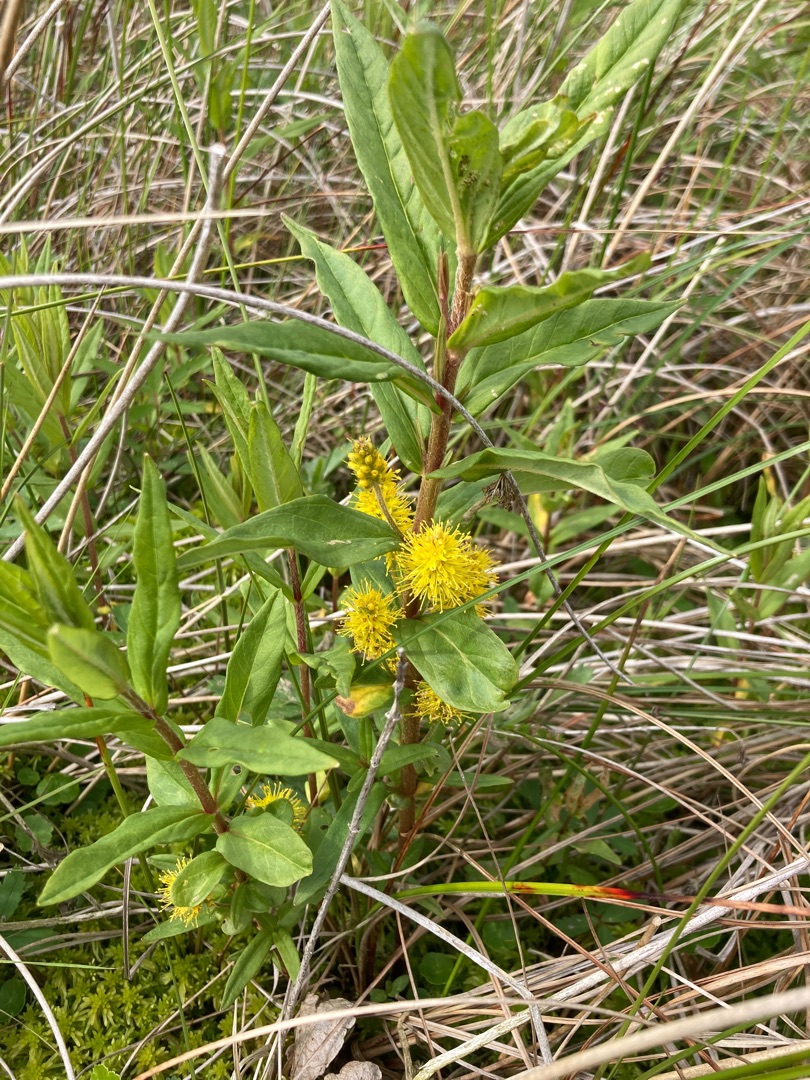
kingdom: Plantae
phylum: Tracheophyta
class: Magnoliopsida
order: Ericales
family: Primulaceae
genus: Lysimachia
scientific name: Lysimachia thyrsiflora
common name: Dusk-fredløs
